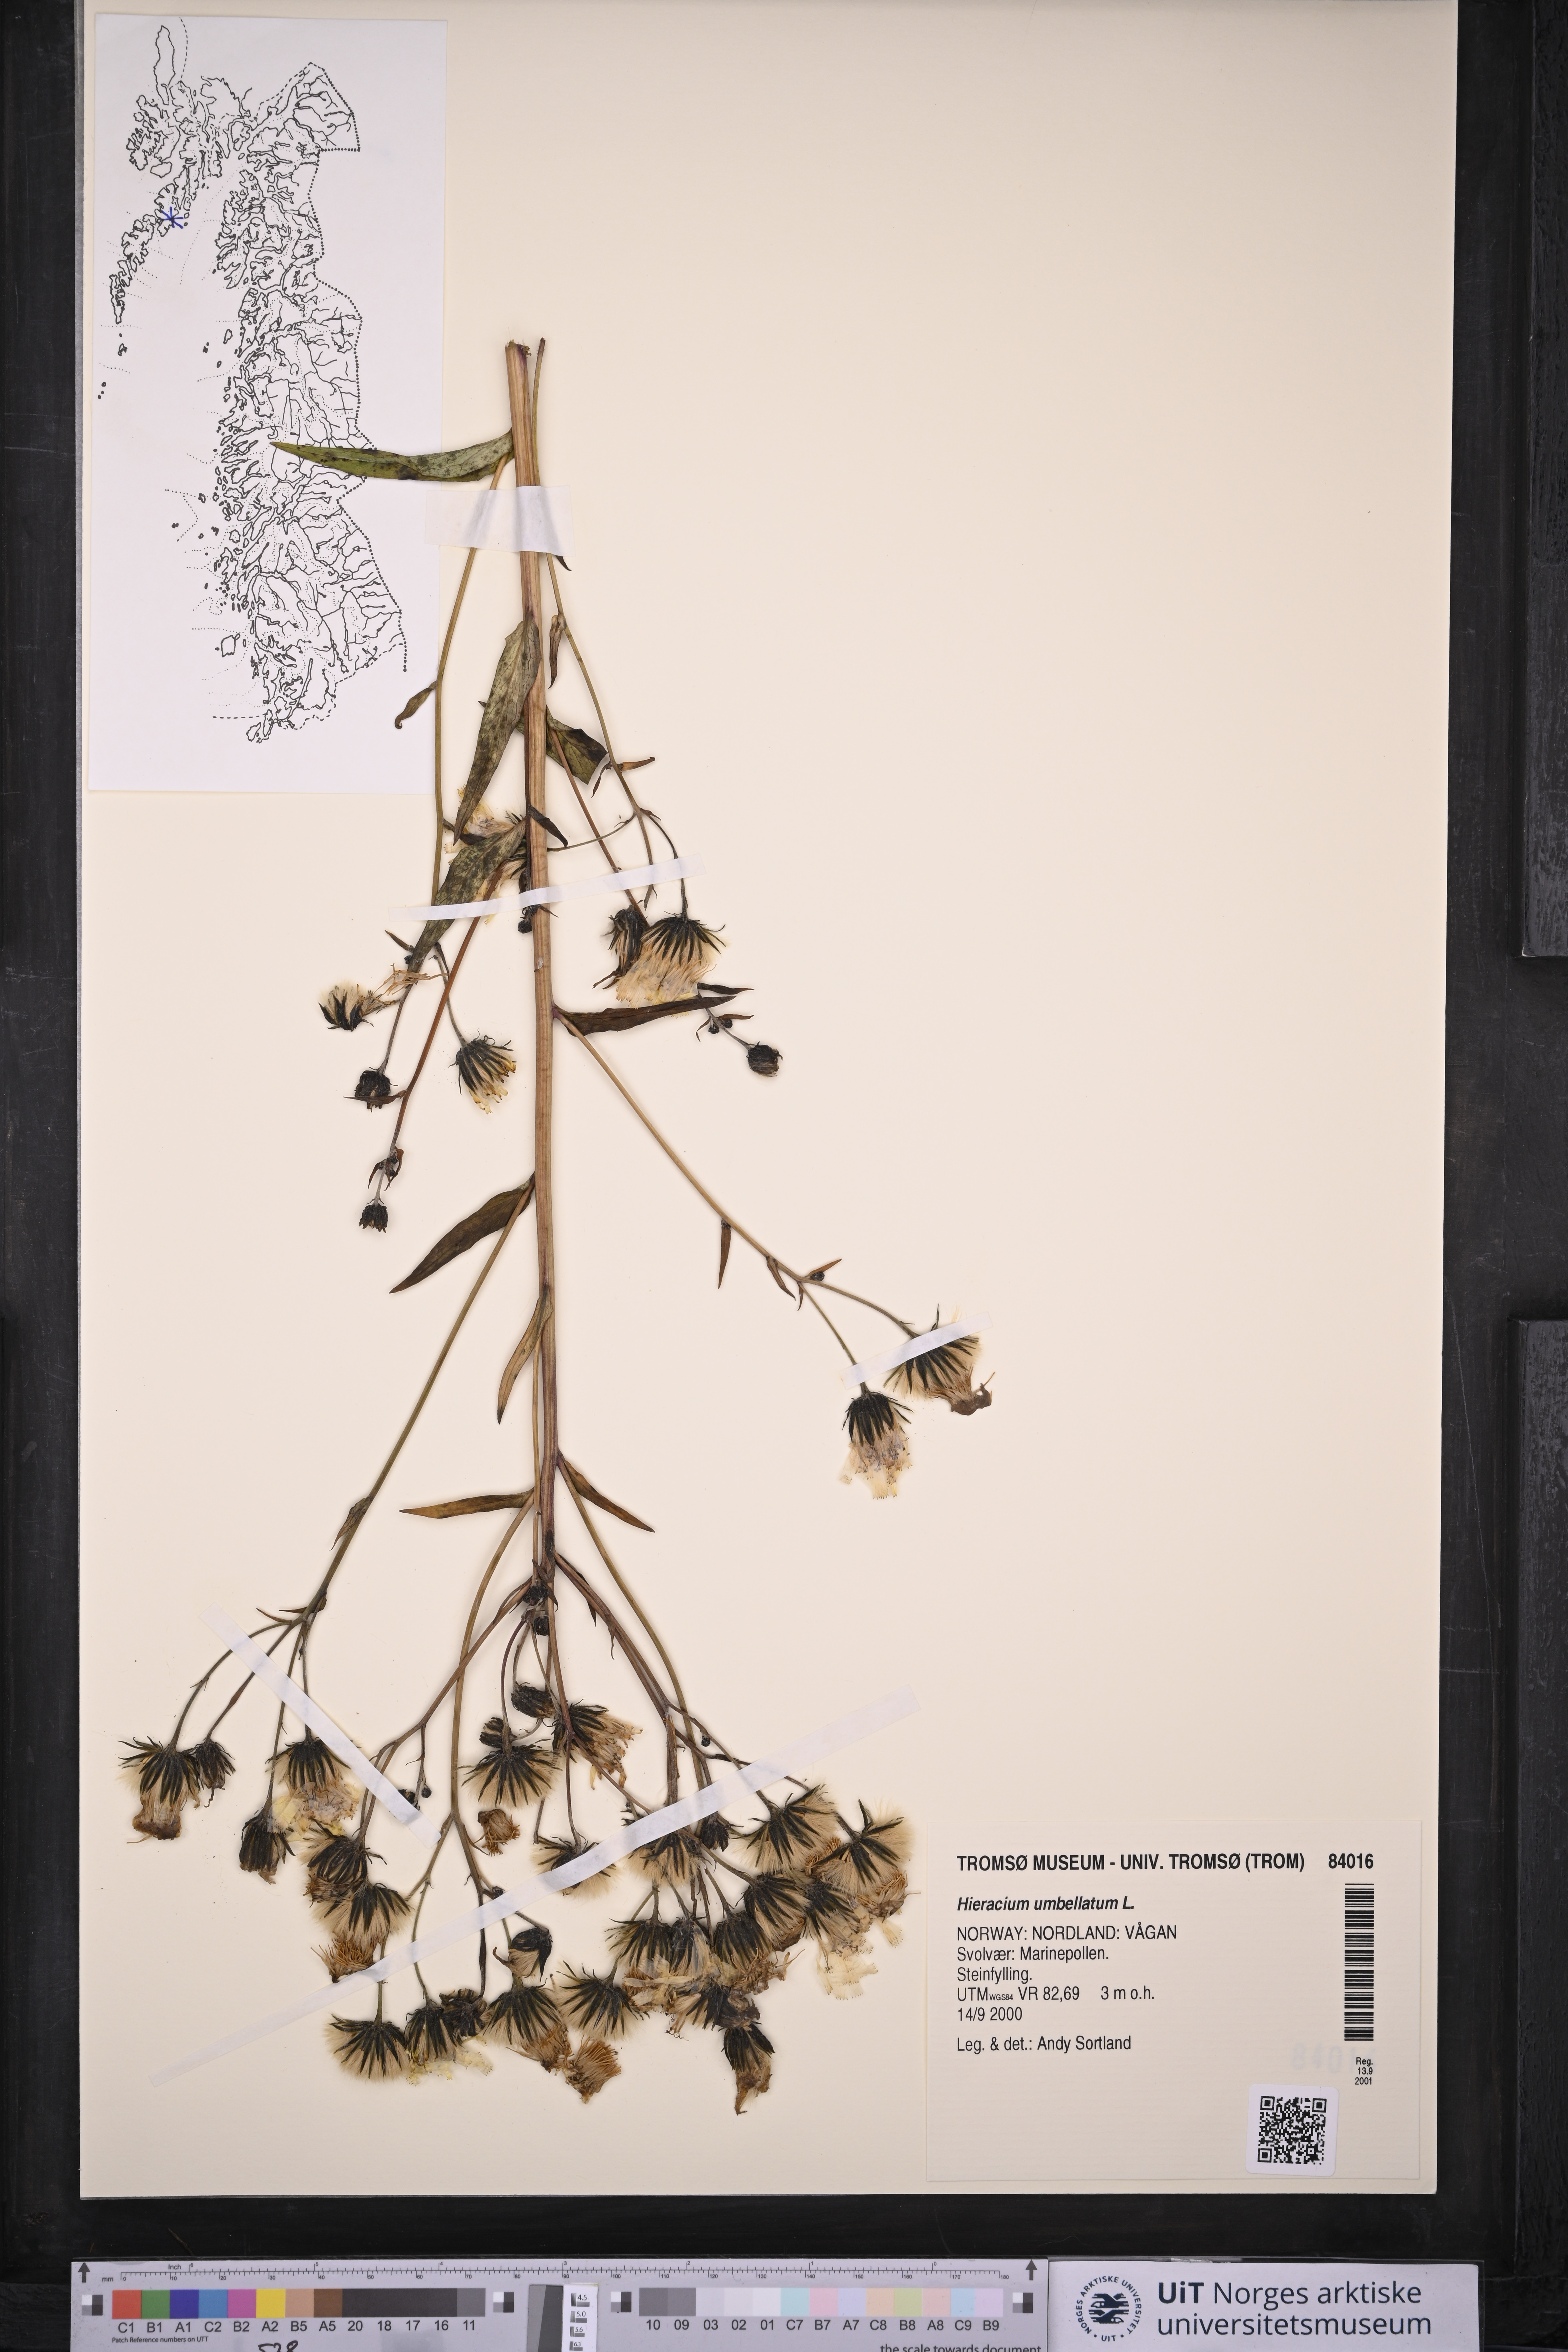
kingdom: Plantae
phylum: Tracheophyta
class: Magnoliopsida
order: Asterales
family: Asteraceae
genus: Hieracium
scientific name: Hieracium umbellatum
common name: Northern hawkweed
